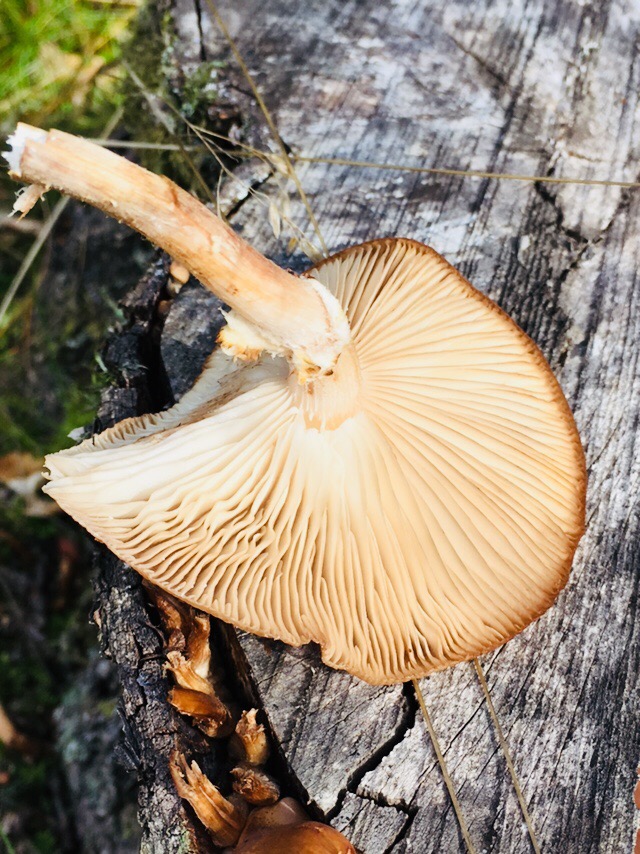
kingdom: Fungi
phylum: Basidiomycota
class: Agaricomycetes
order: Agaricales
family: Physalacriaceae
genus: Armillaria
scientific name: Armillaria
